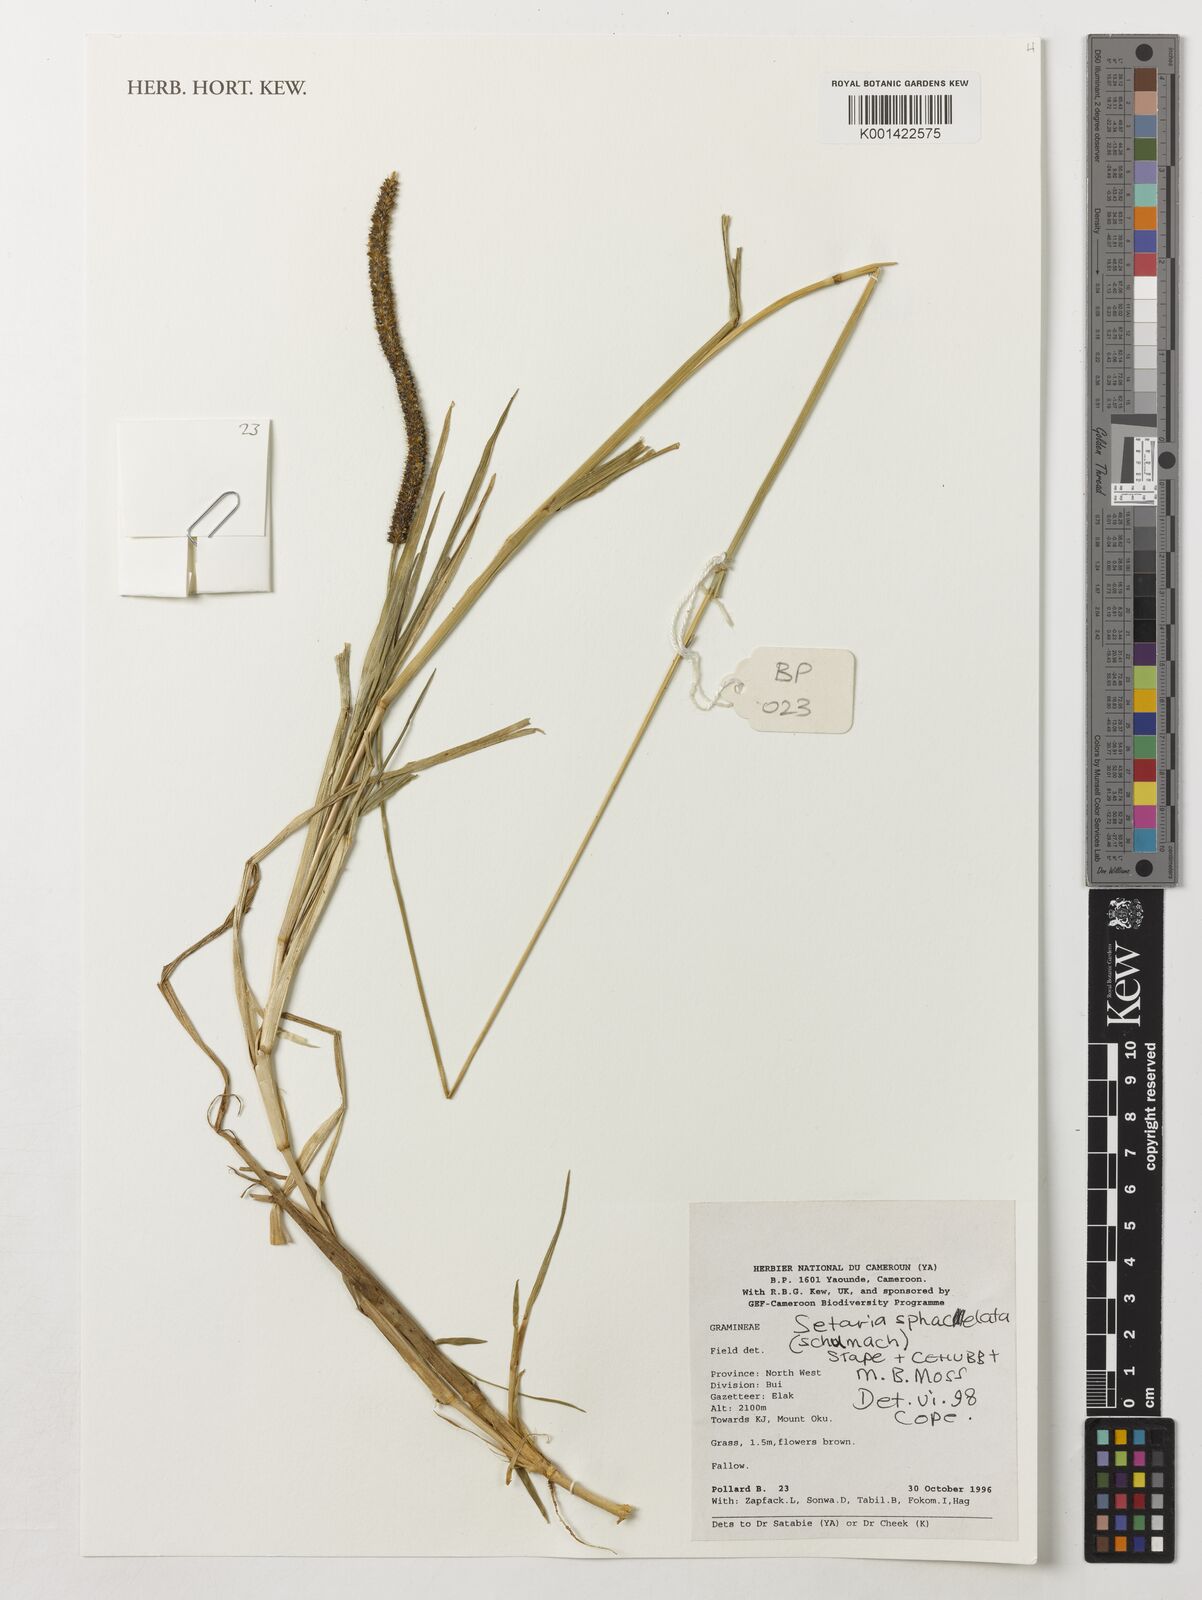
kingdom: Plantae
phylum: Tracheophyta
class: Liliopsida
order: Poales
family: Poaceae
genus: Setaria
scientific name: Setaria sphacelata
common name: African bristlegrass
